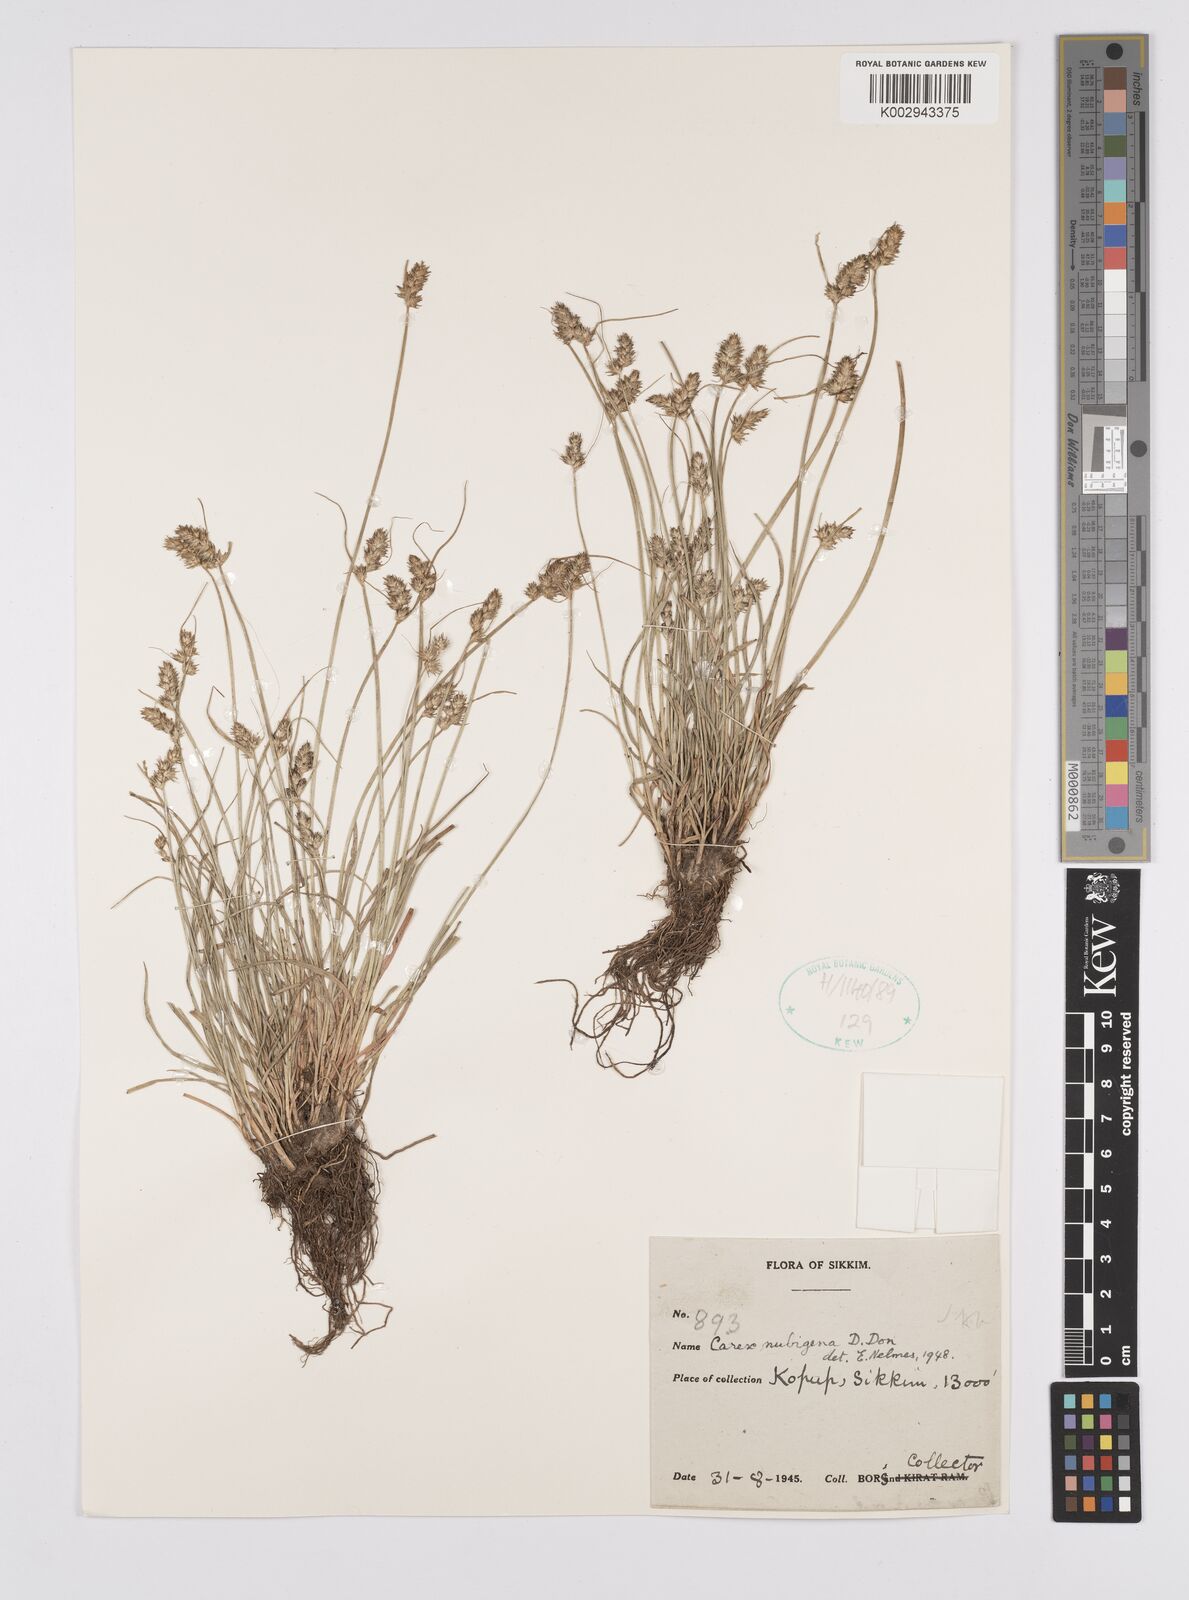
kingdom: Plantae
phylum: Tracheophyta
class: Liliopsida
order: Poales
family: Cyperaceae
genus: Carex
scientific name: Carex nubigena
